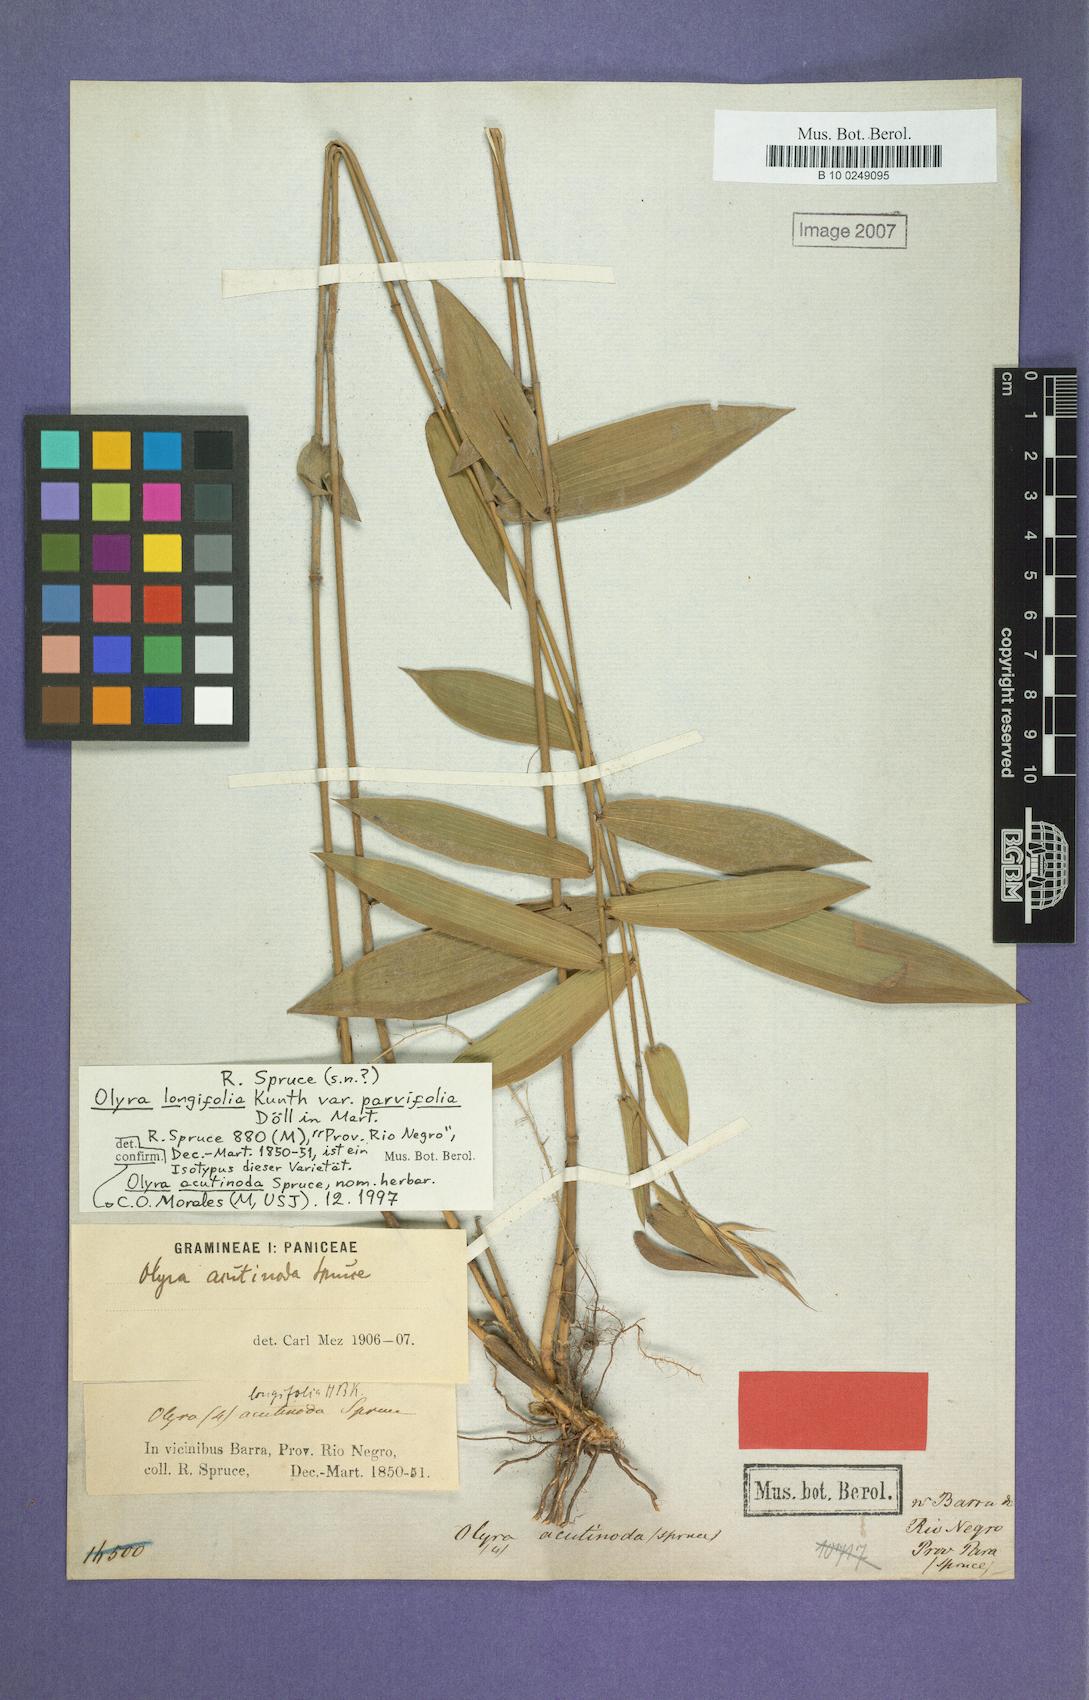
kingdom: Plantae
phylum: Tracheophyta
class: Liliopsida
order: Poales
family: Poaceae
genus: Olyra
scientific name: Olyra longifolia
